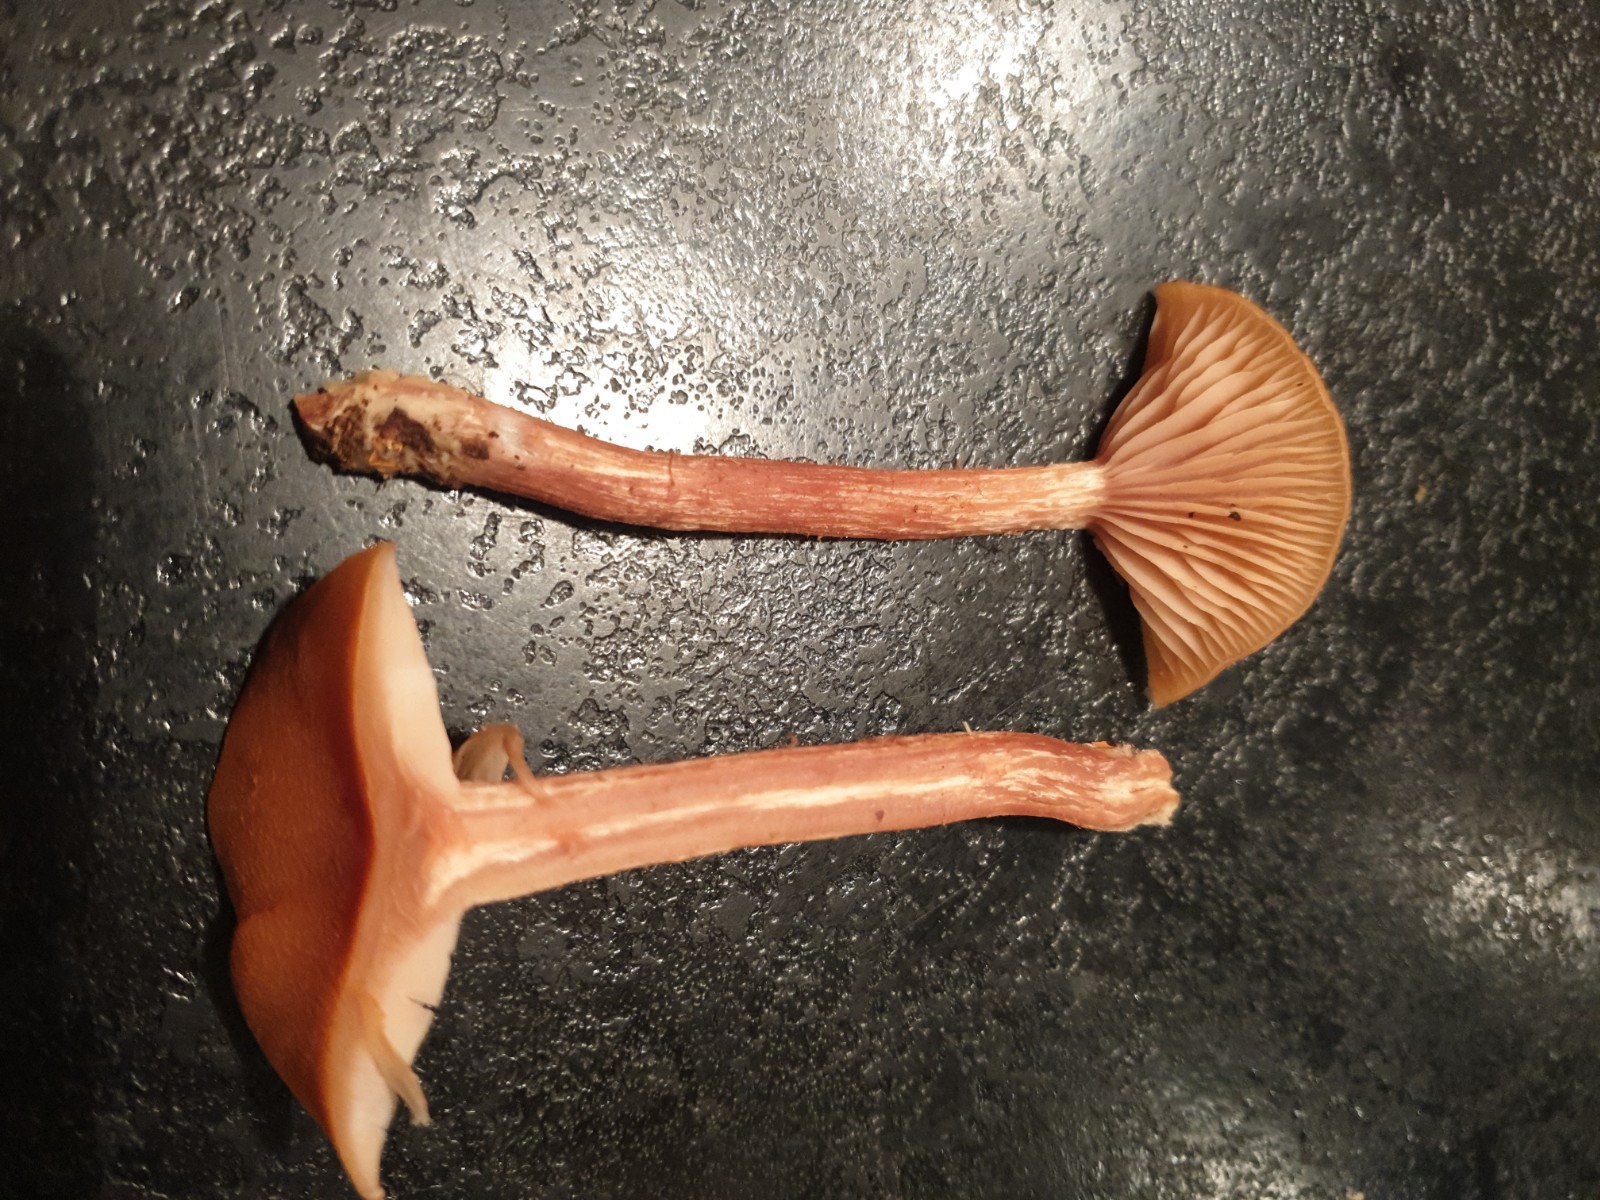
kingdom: Fungi
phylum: Basidiomycota
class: Agaricomycetes
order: Agaricales
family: Hydnangiaceae
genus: Laccaria
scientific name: Laccaria proxima
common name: stor ametysthat
